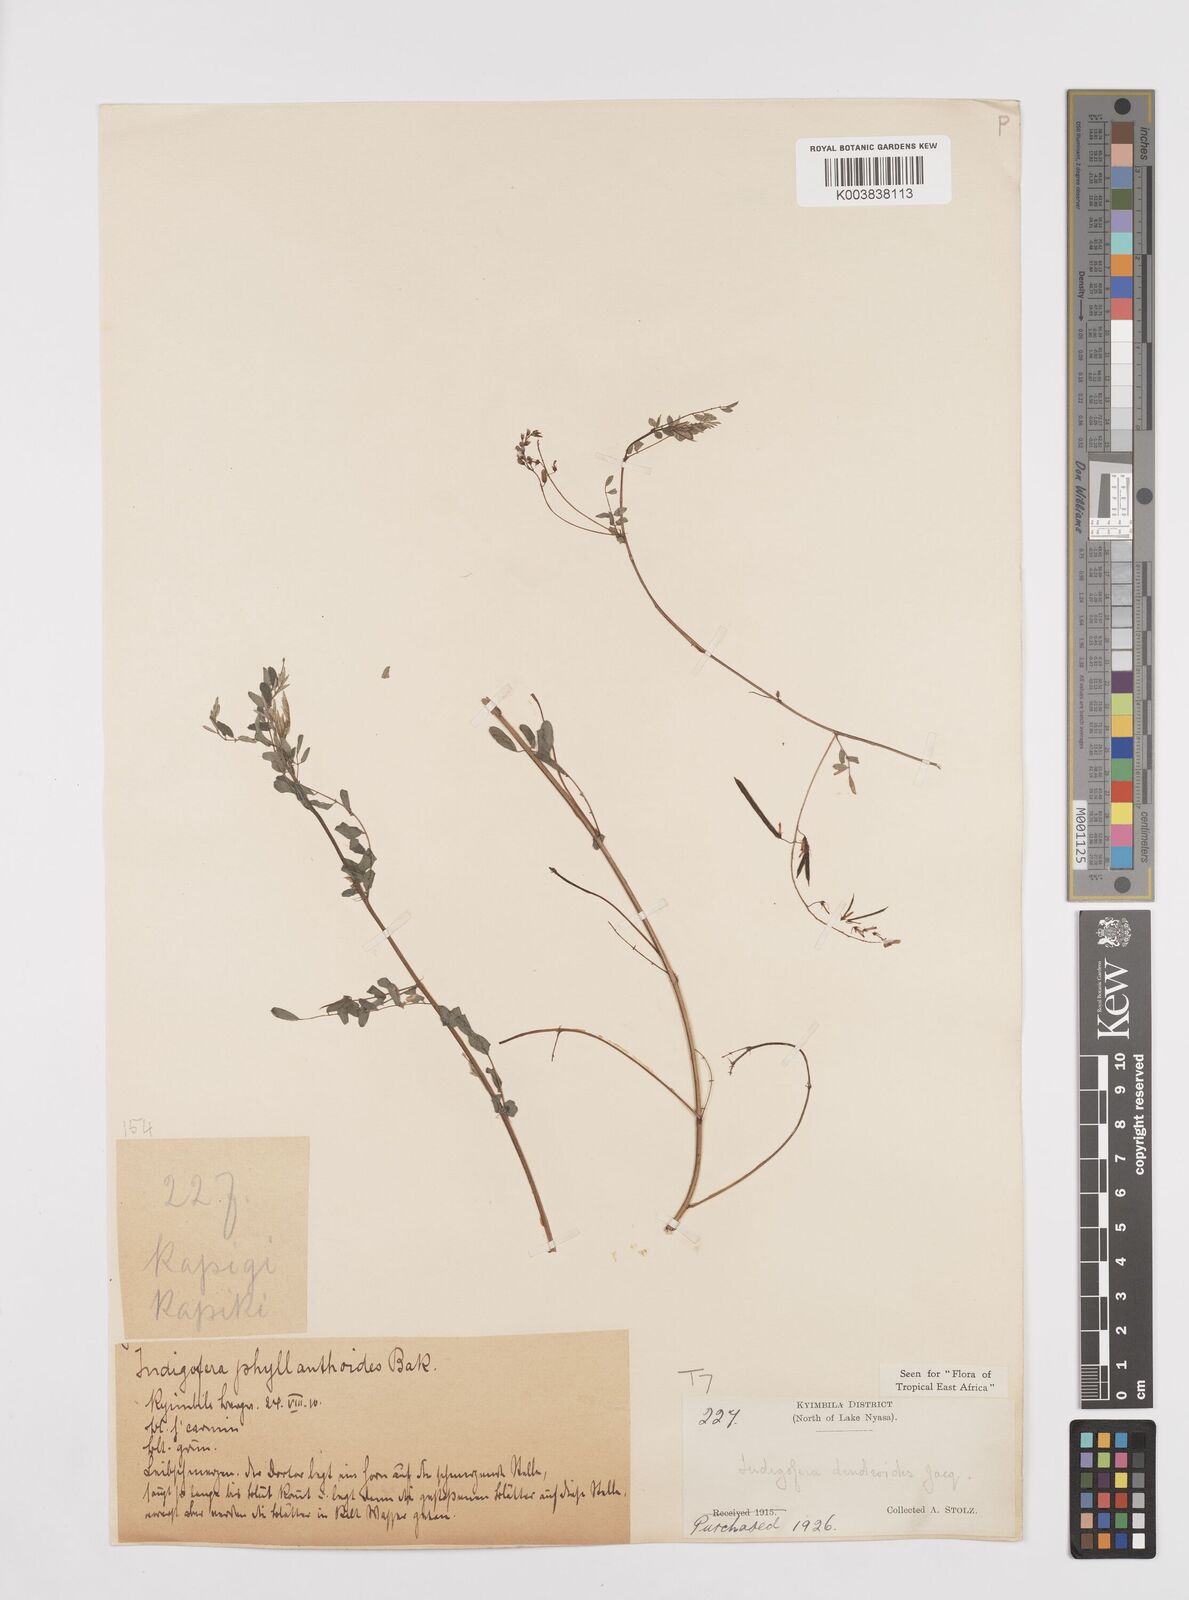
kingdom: Plantae
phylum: Tracheophyta
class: Magnoliopsida
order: Fabales
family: Fabaceae
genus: Indigofera
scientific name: Indigofera dendroides
